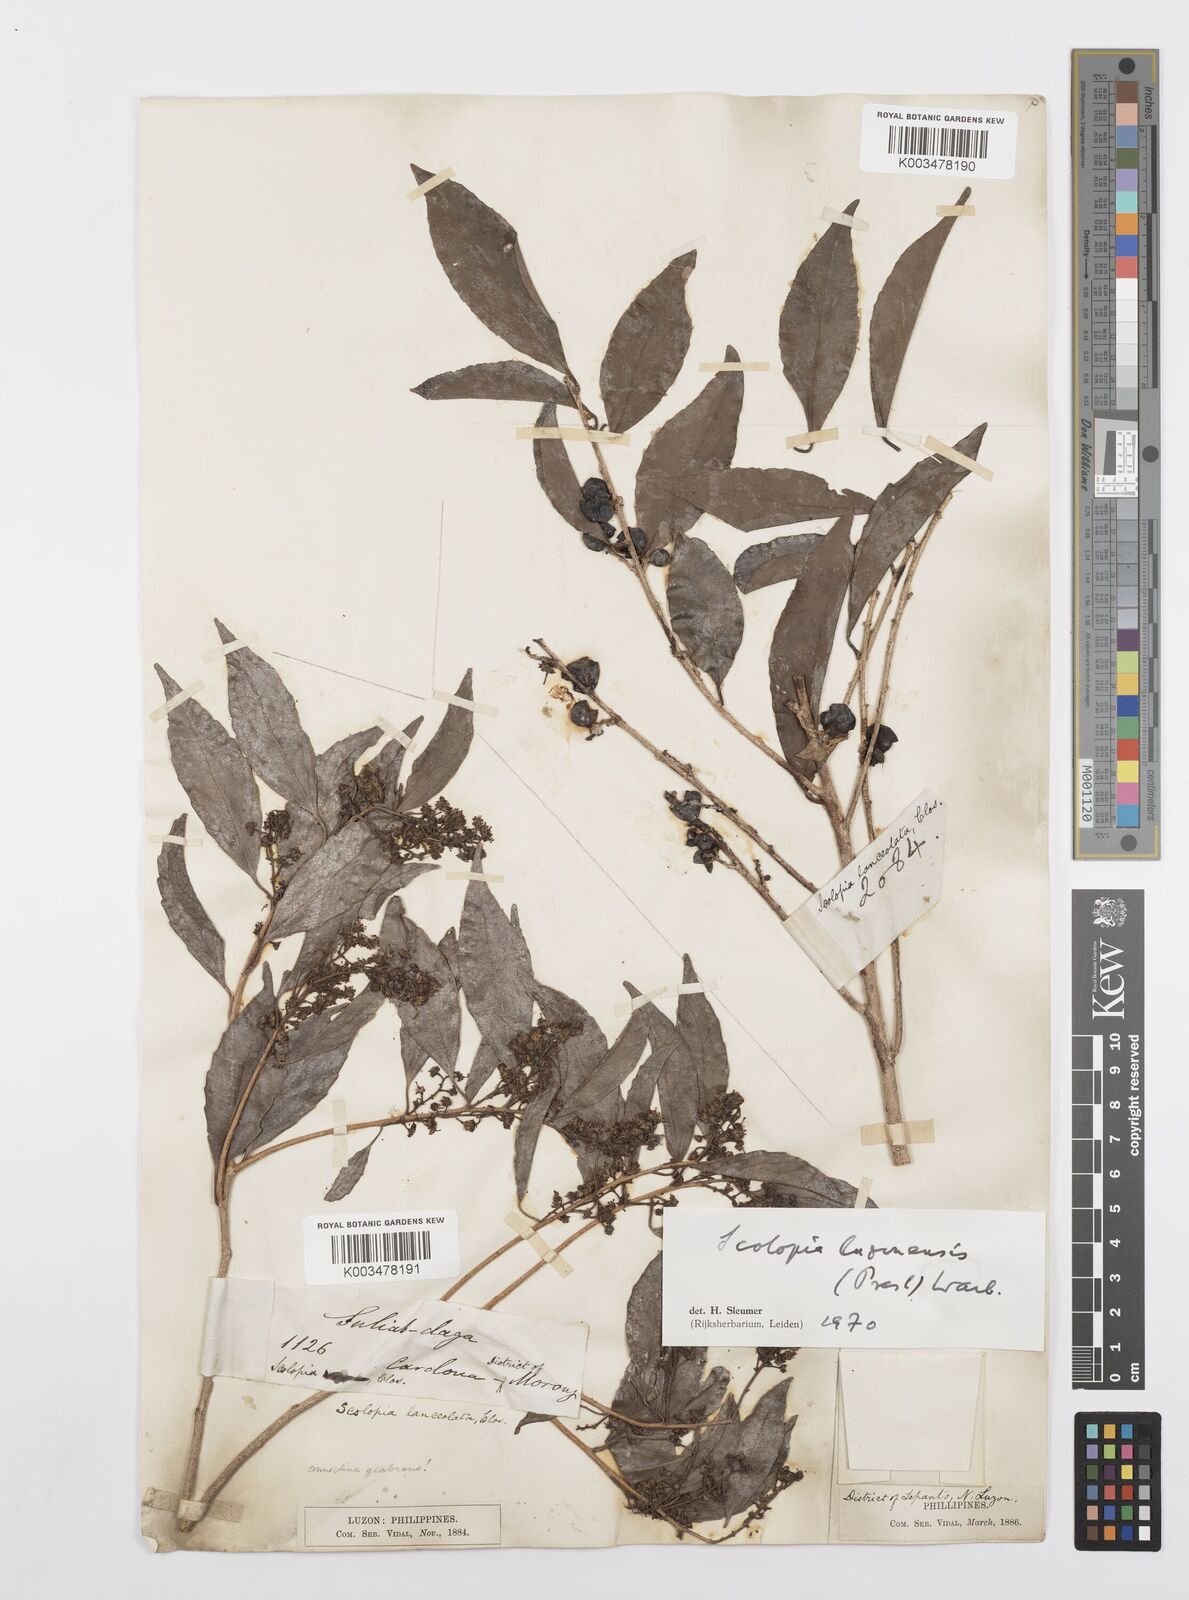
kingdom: Plantae
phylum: Tracheophyta
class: Magnoliopsida
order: Malpighiales
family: Salicaceae
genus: Scolopia
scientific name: Scolopia luzonensis
